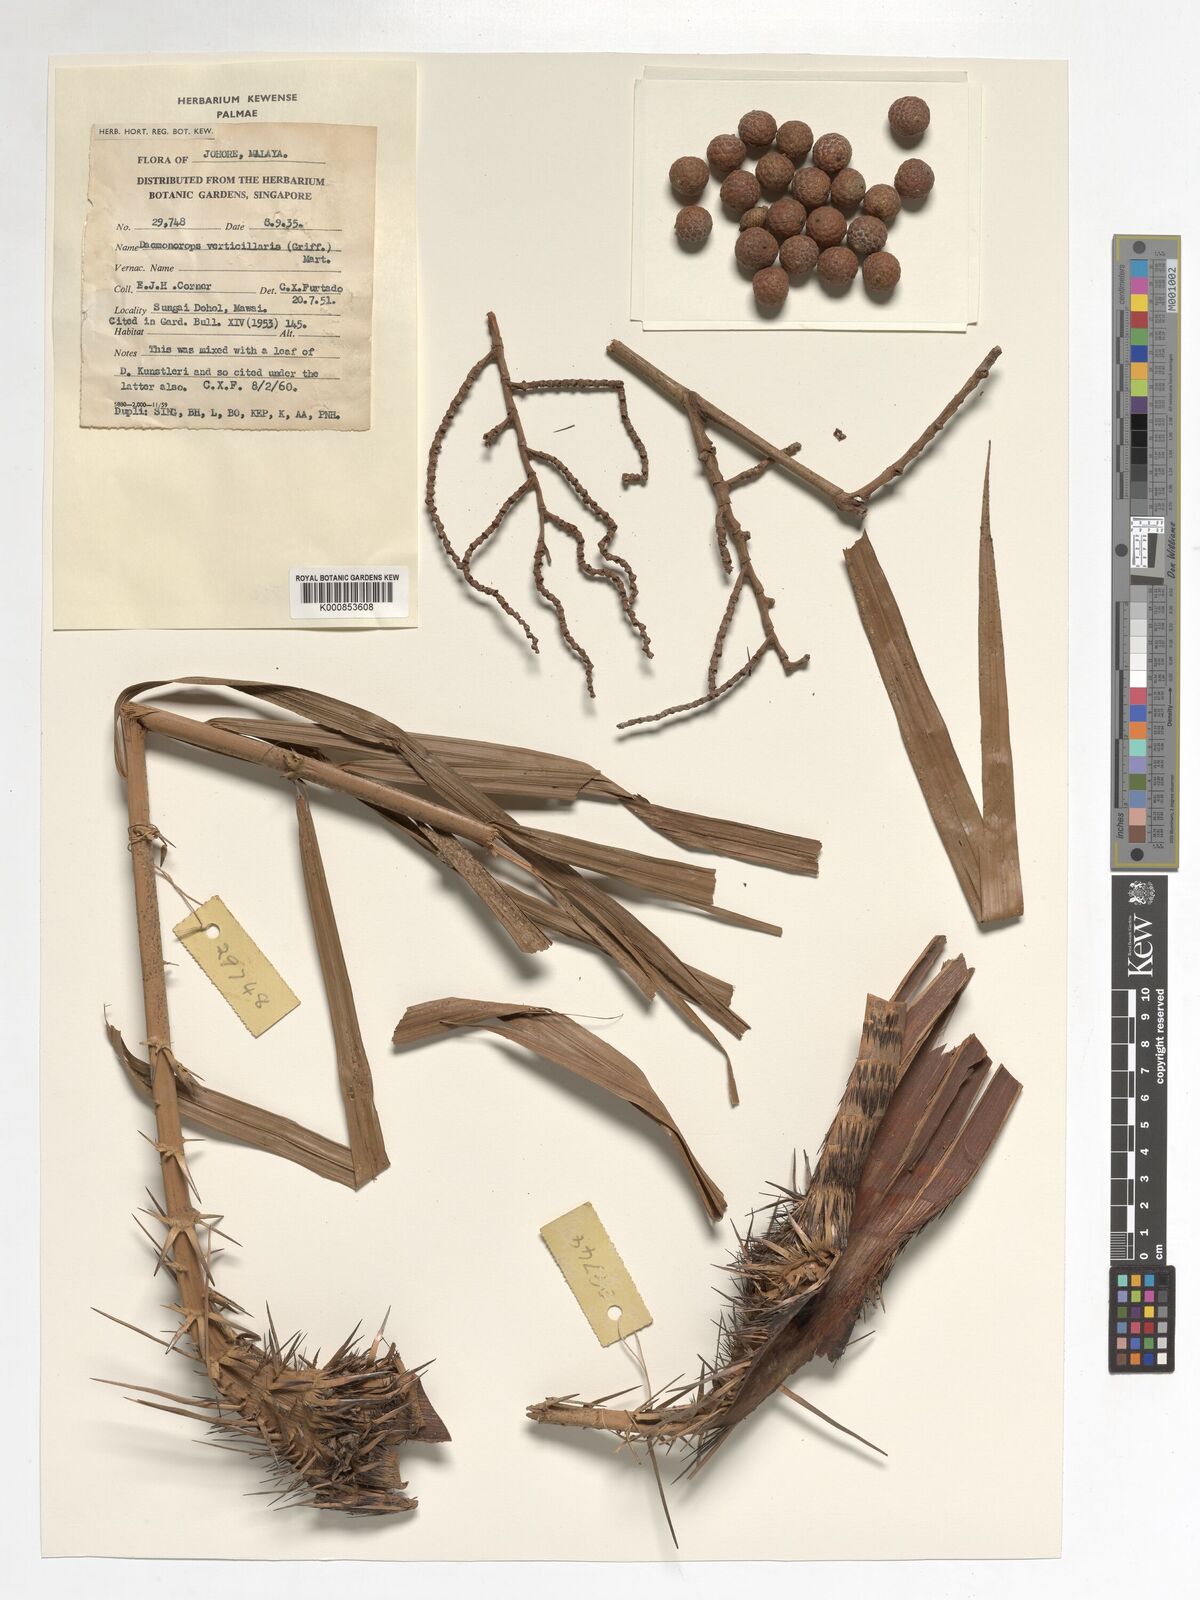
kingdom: Plantae
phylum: Tracheophyta
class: Liliopsida
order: Arecales
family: Arecaceae
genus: Calamus
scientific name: Calamus verticillaris
